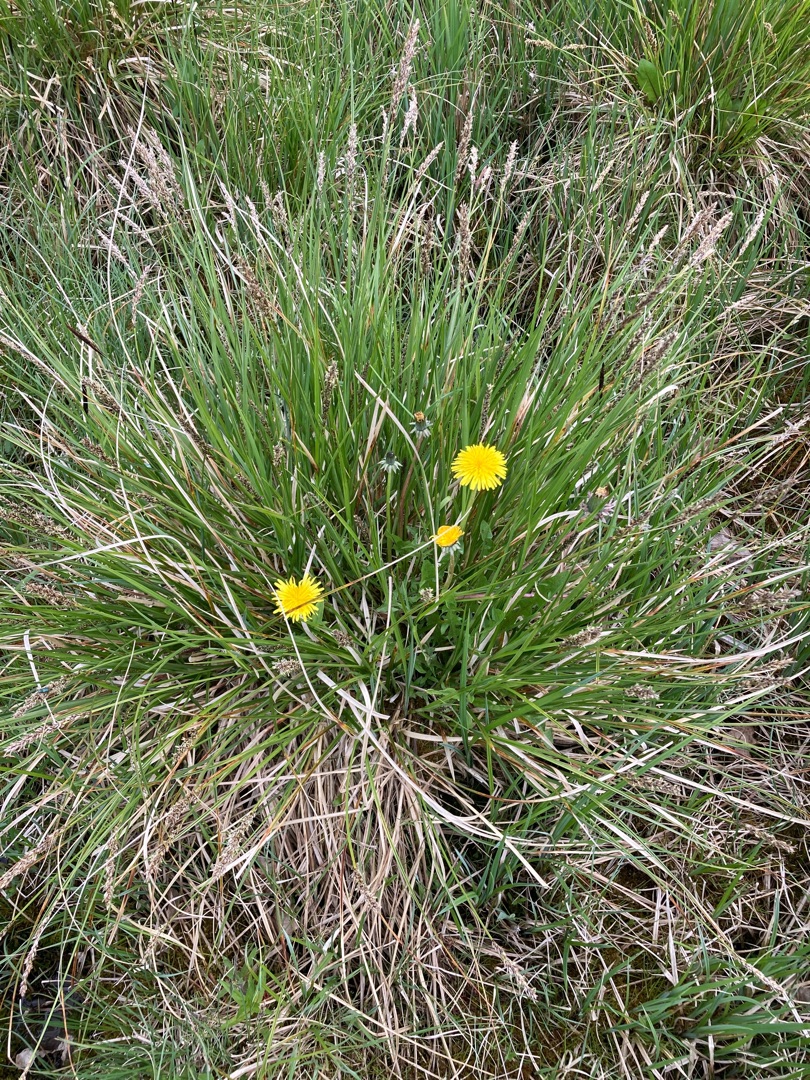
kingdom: Plantae
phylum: Tracheophyta
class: Liliopsida
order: Poales
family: Cyperaceae
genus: Carex
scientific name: Carex paniculata
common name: Top-star
